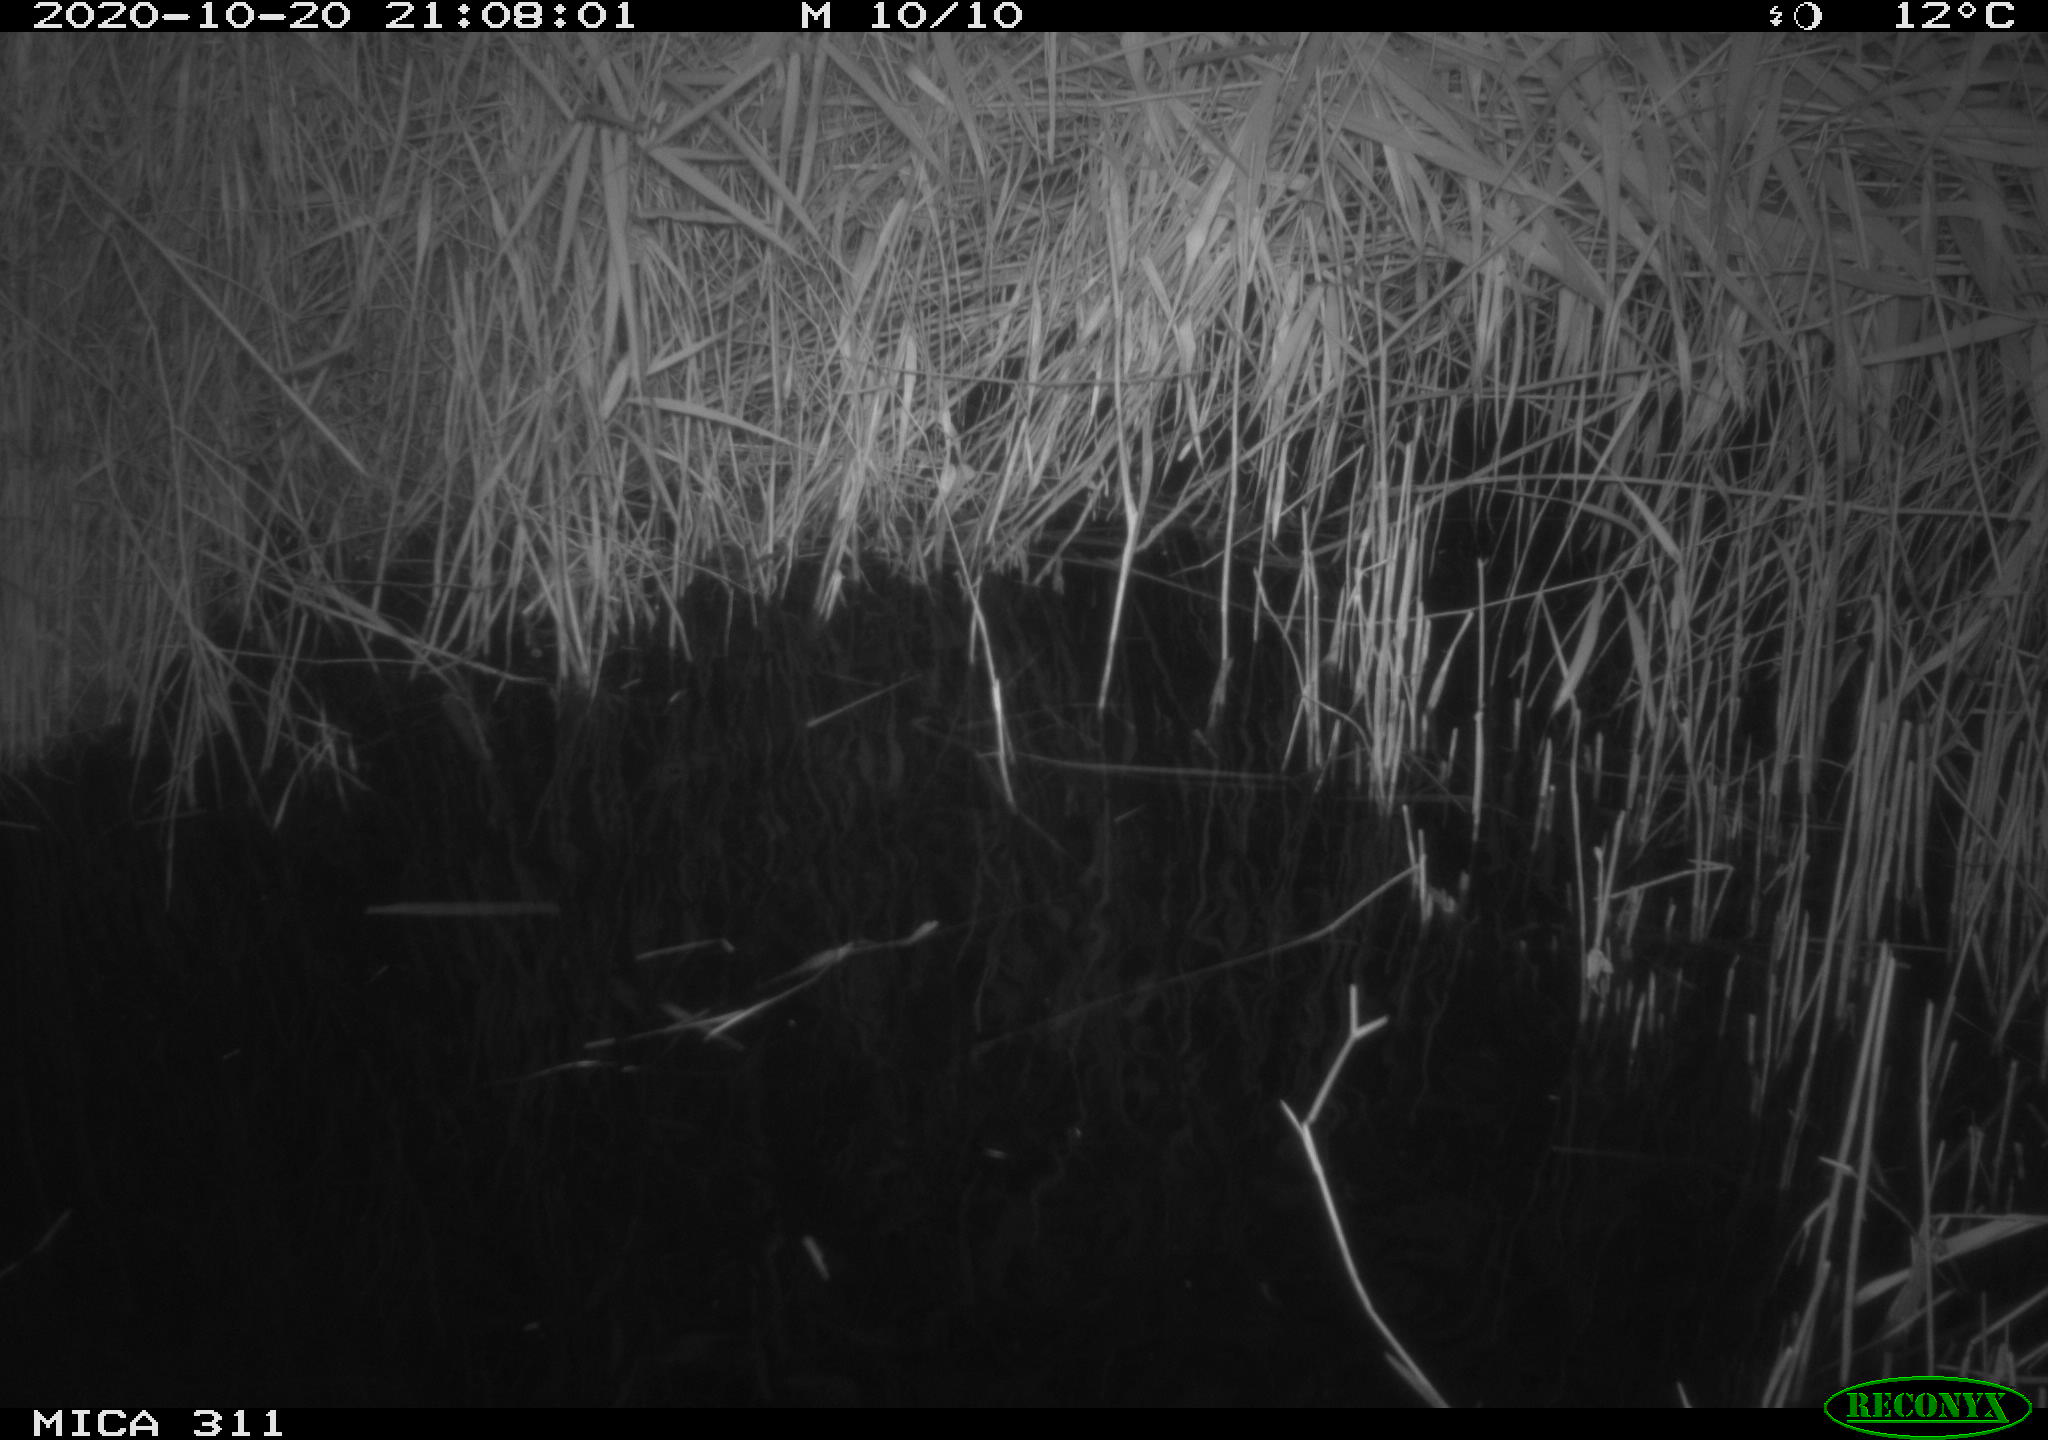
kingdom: Animalia
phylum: Chordata
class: Mammalia
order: Rodentia
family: Muridae
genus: Rattus
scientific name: Rattus norvegicus
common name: Brown rat
